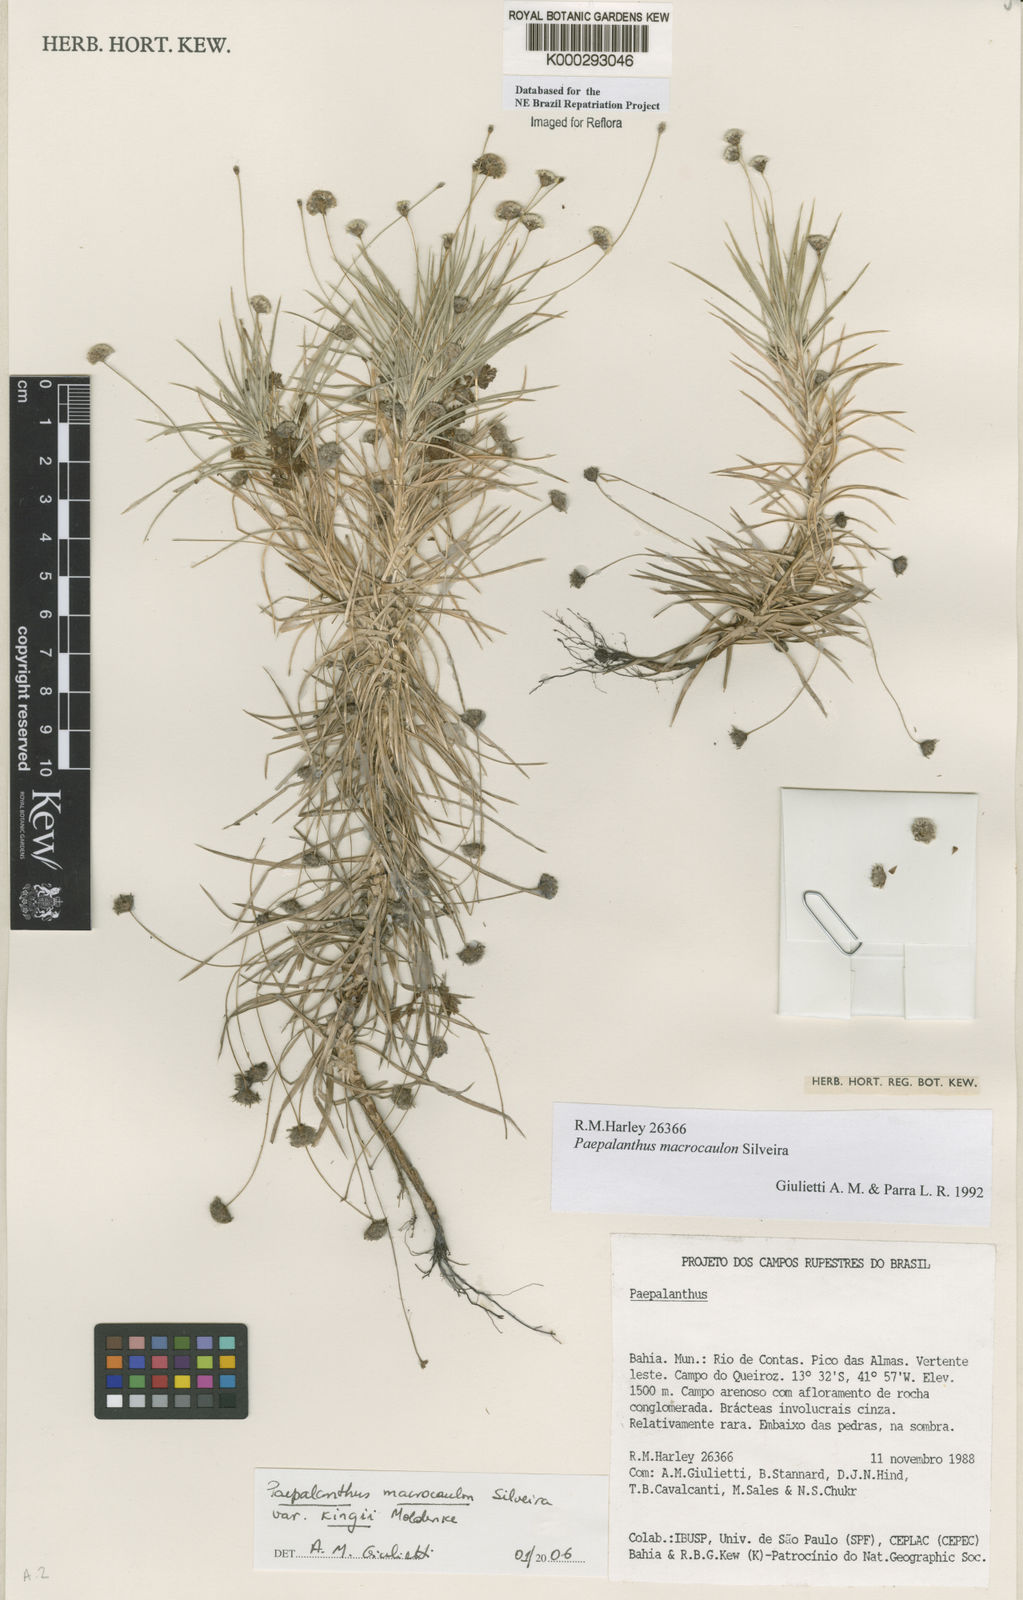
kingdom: Plantae
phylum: Tracheophyta
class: Liliopsida
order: Poales
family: Eriocaulaceae
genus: Paepalanthus
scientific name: Paepalanthus macrocaulon
